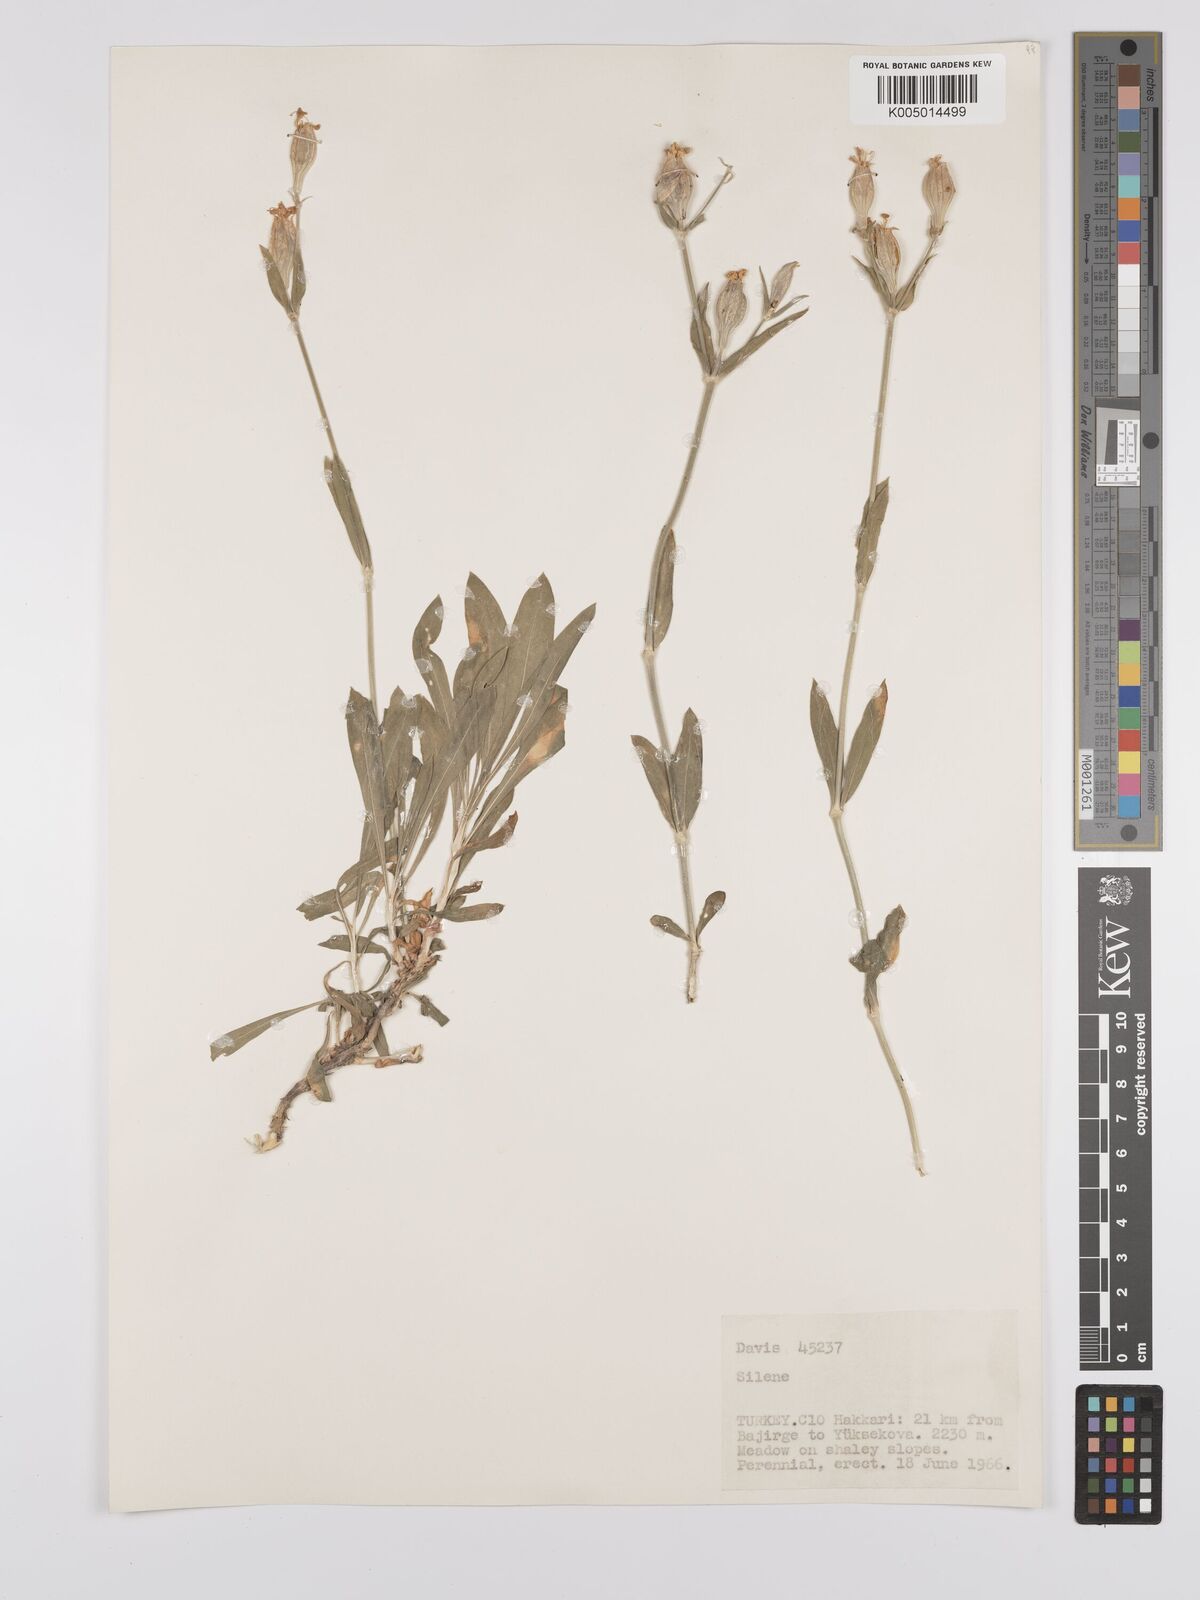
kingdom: Plantae
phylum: Tracheophyta
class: Magnoliopsida
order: Caryophyllales
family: Caryophyllaceae
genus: Silene
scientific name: Silene
